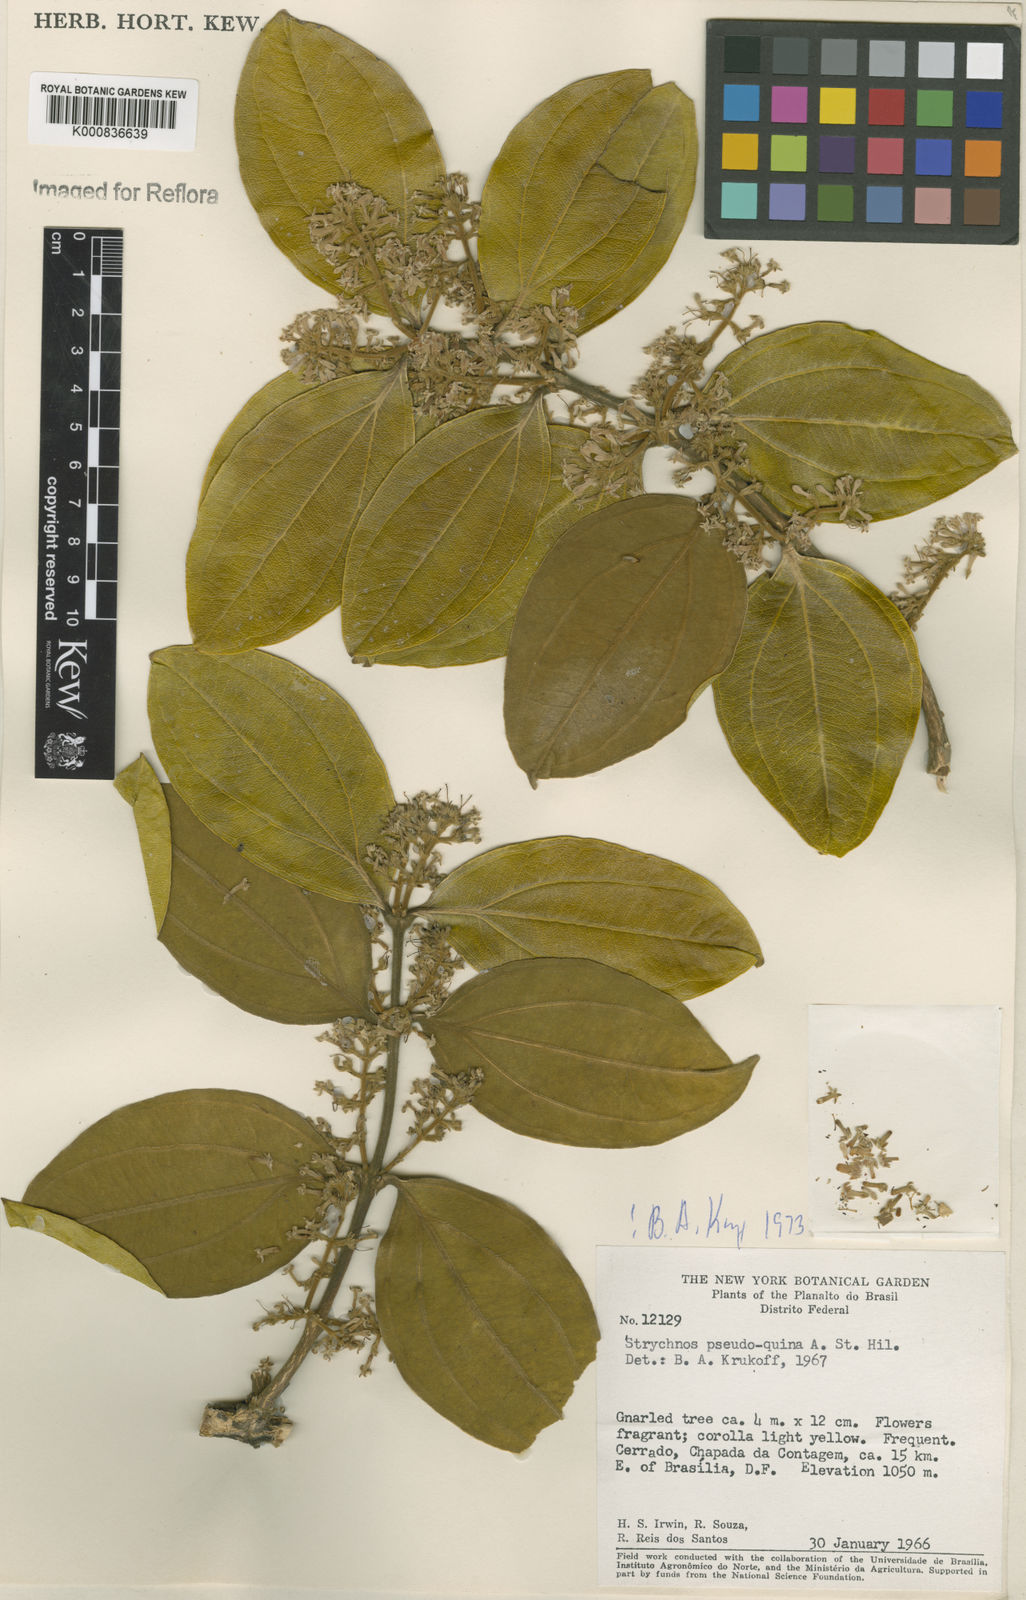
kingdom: Plantae
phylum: Tracheophyta
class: Magnoliopsida
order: Gentianales
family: Loganiaceae
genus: Strychnos
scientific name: Strychnos pseudoquina
